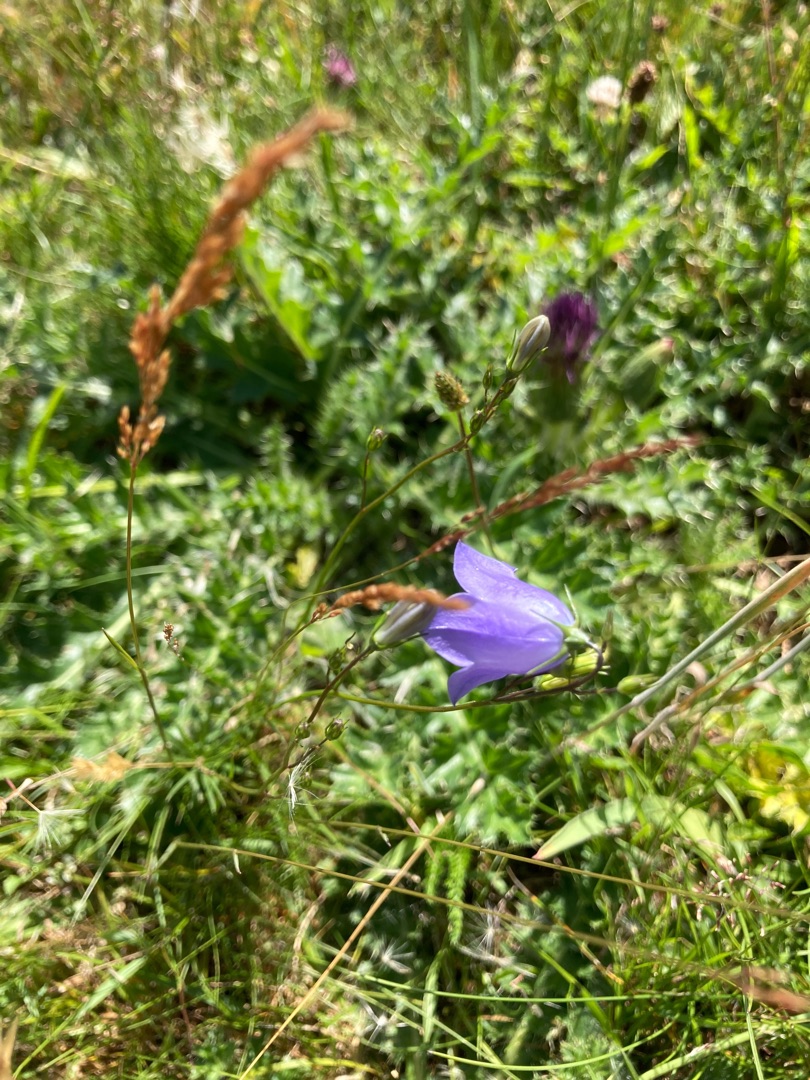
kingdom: Plantae
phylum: Tracheophyta
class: Magnoliopsida
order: Asterales
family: Campanulaceae
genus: Campanula
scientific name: Campanula rotundifolia
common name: Liden klokke
